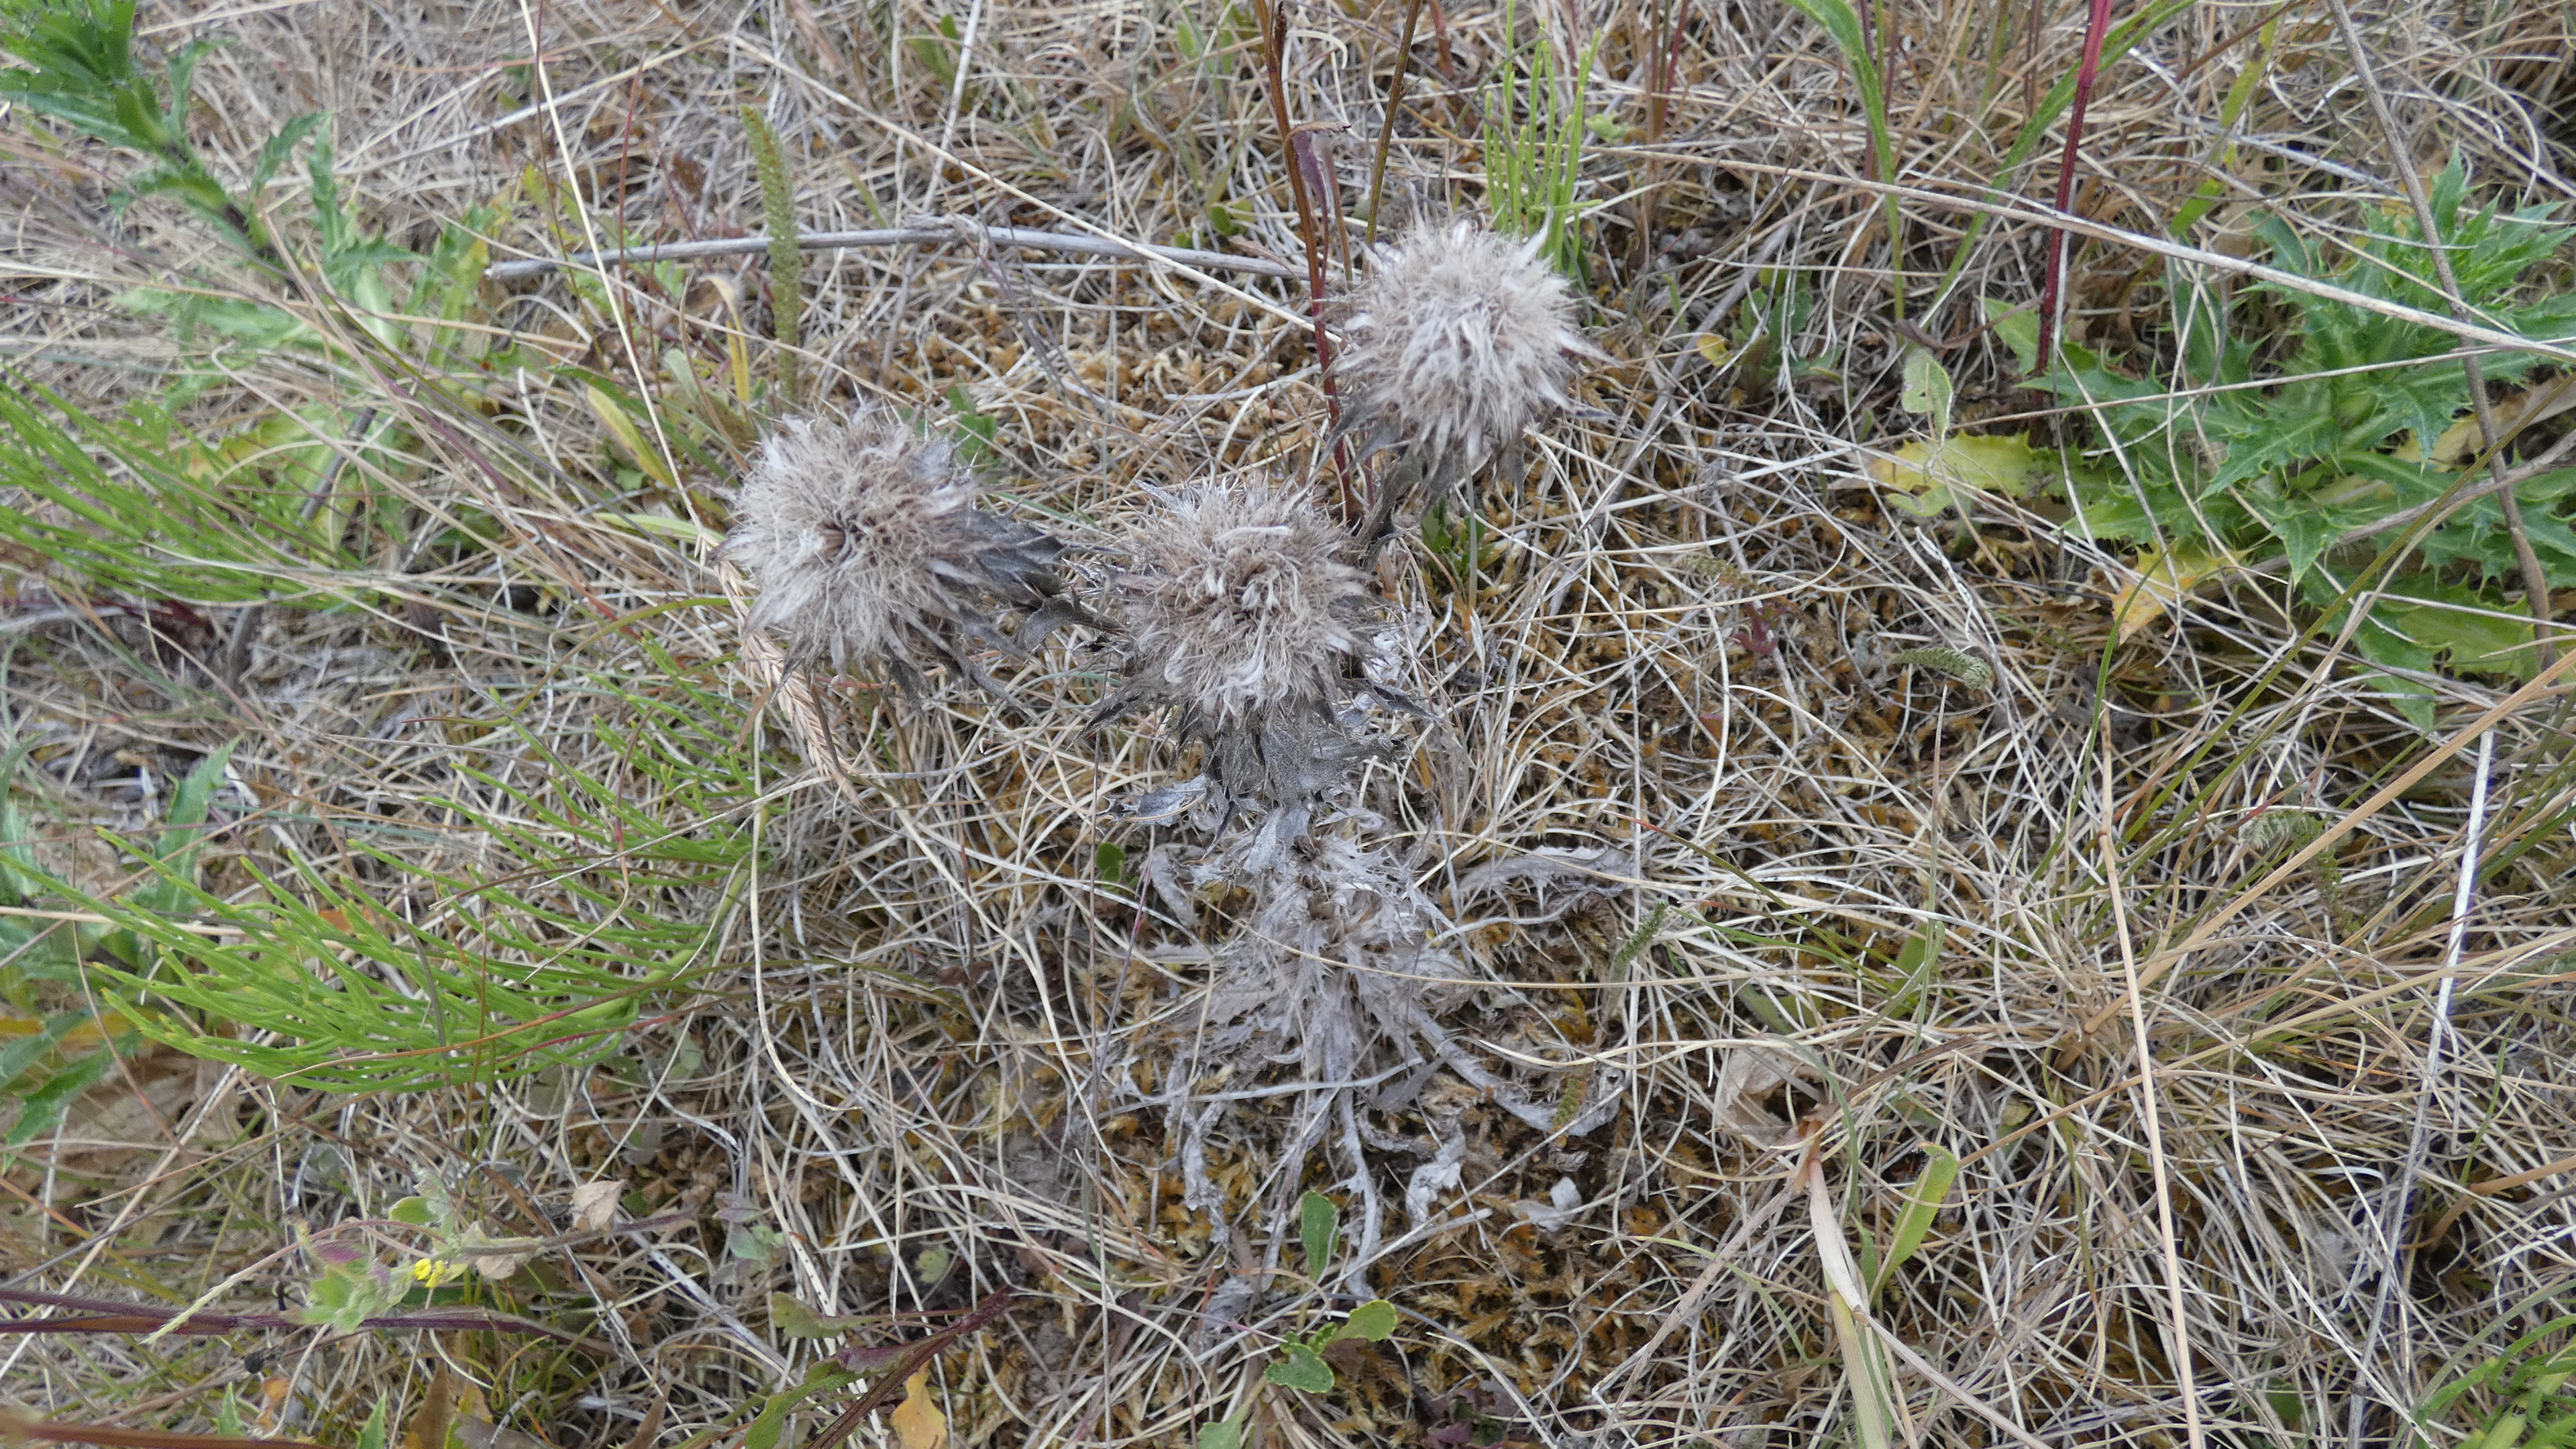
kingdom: Plantae
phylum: Tracheophyta
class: Magnoliopsida
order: Asterales
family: Asteraceae
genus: Carlina
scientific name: Carlina vulgaris
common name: Bakketidsel
